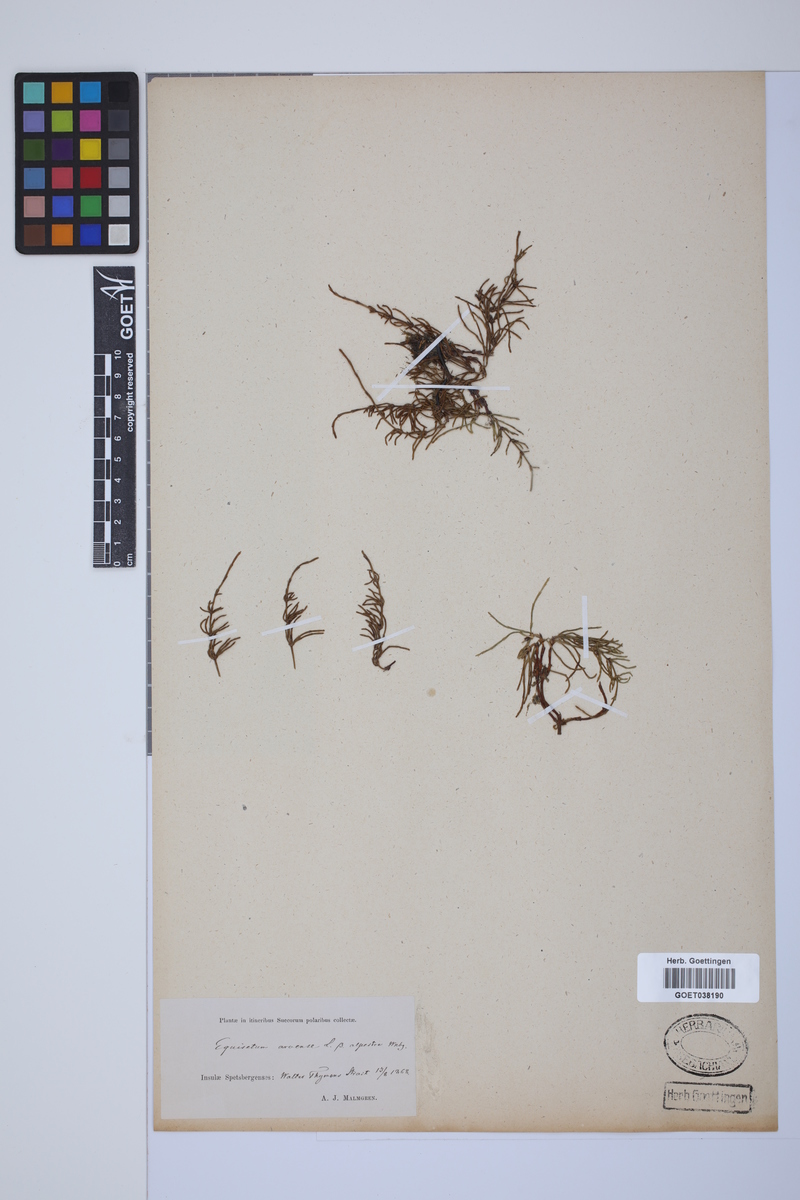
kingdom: Plantae
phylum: Tracheophyta
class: Polypodiopsida
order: Equisetales
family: Equisetaceae
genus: Equisetum
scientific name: Equisetum arvense
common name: Field horsetail
